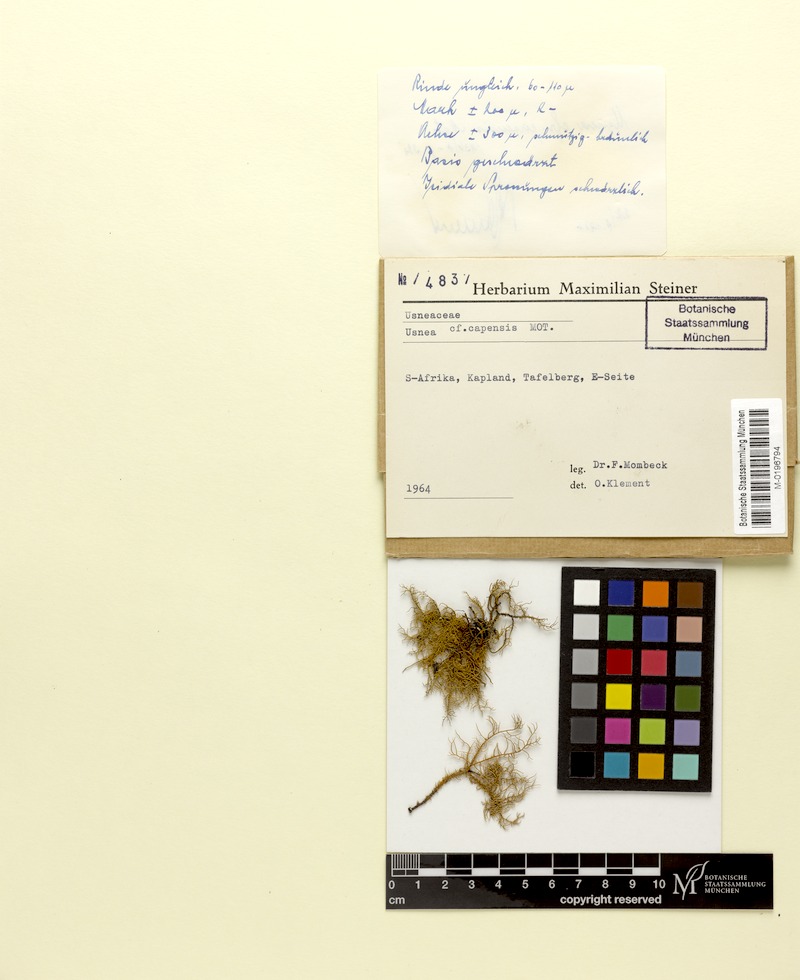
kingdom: Fungi
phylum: Ascomycota
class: Lecanoromycetes
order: Lecanorales
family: Parmeliaceae
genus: Usnea
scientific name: Usnea austroafricana
